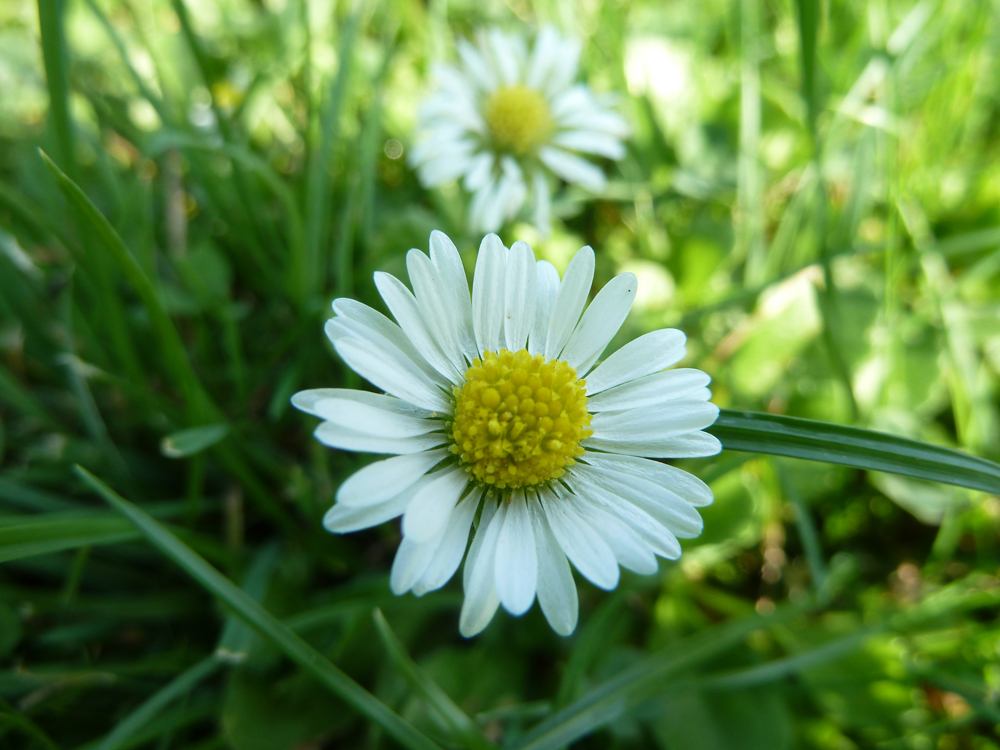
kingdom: Plantae
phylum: Tracheophyta
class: Magnoliopsida
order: Asterales
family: Asteraceae
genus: Bellis
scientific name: Bellis perennis
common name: Lawndaisy
